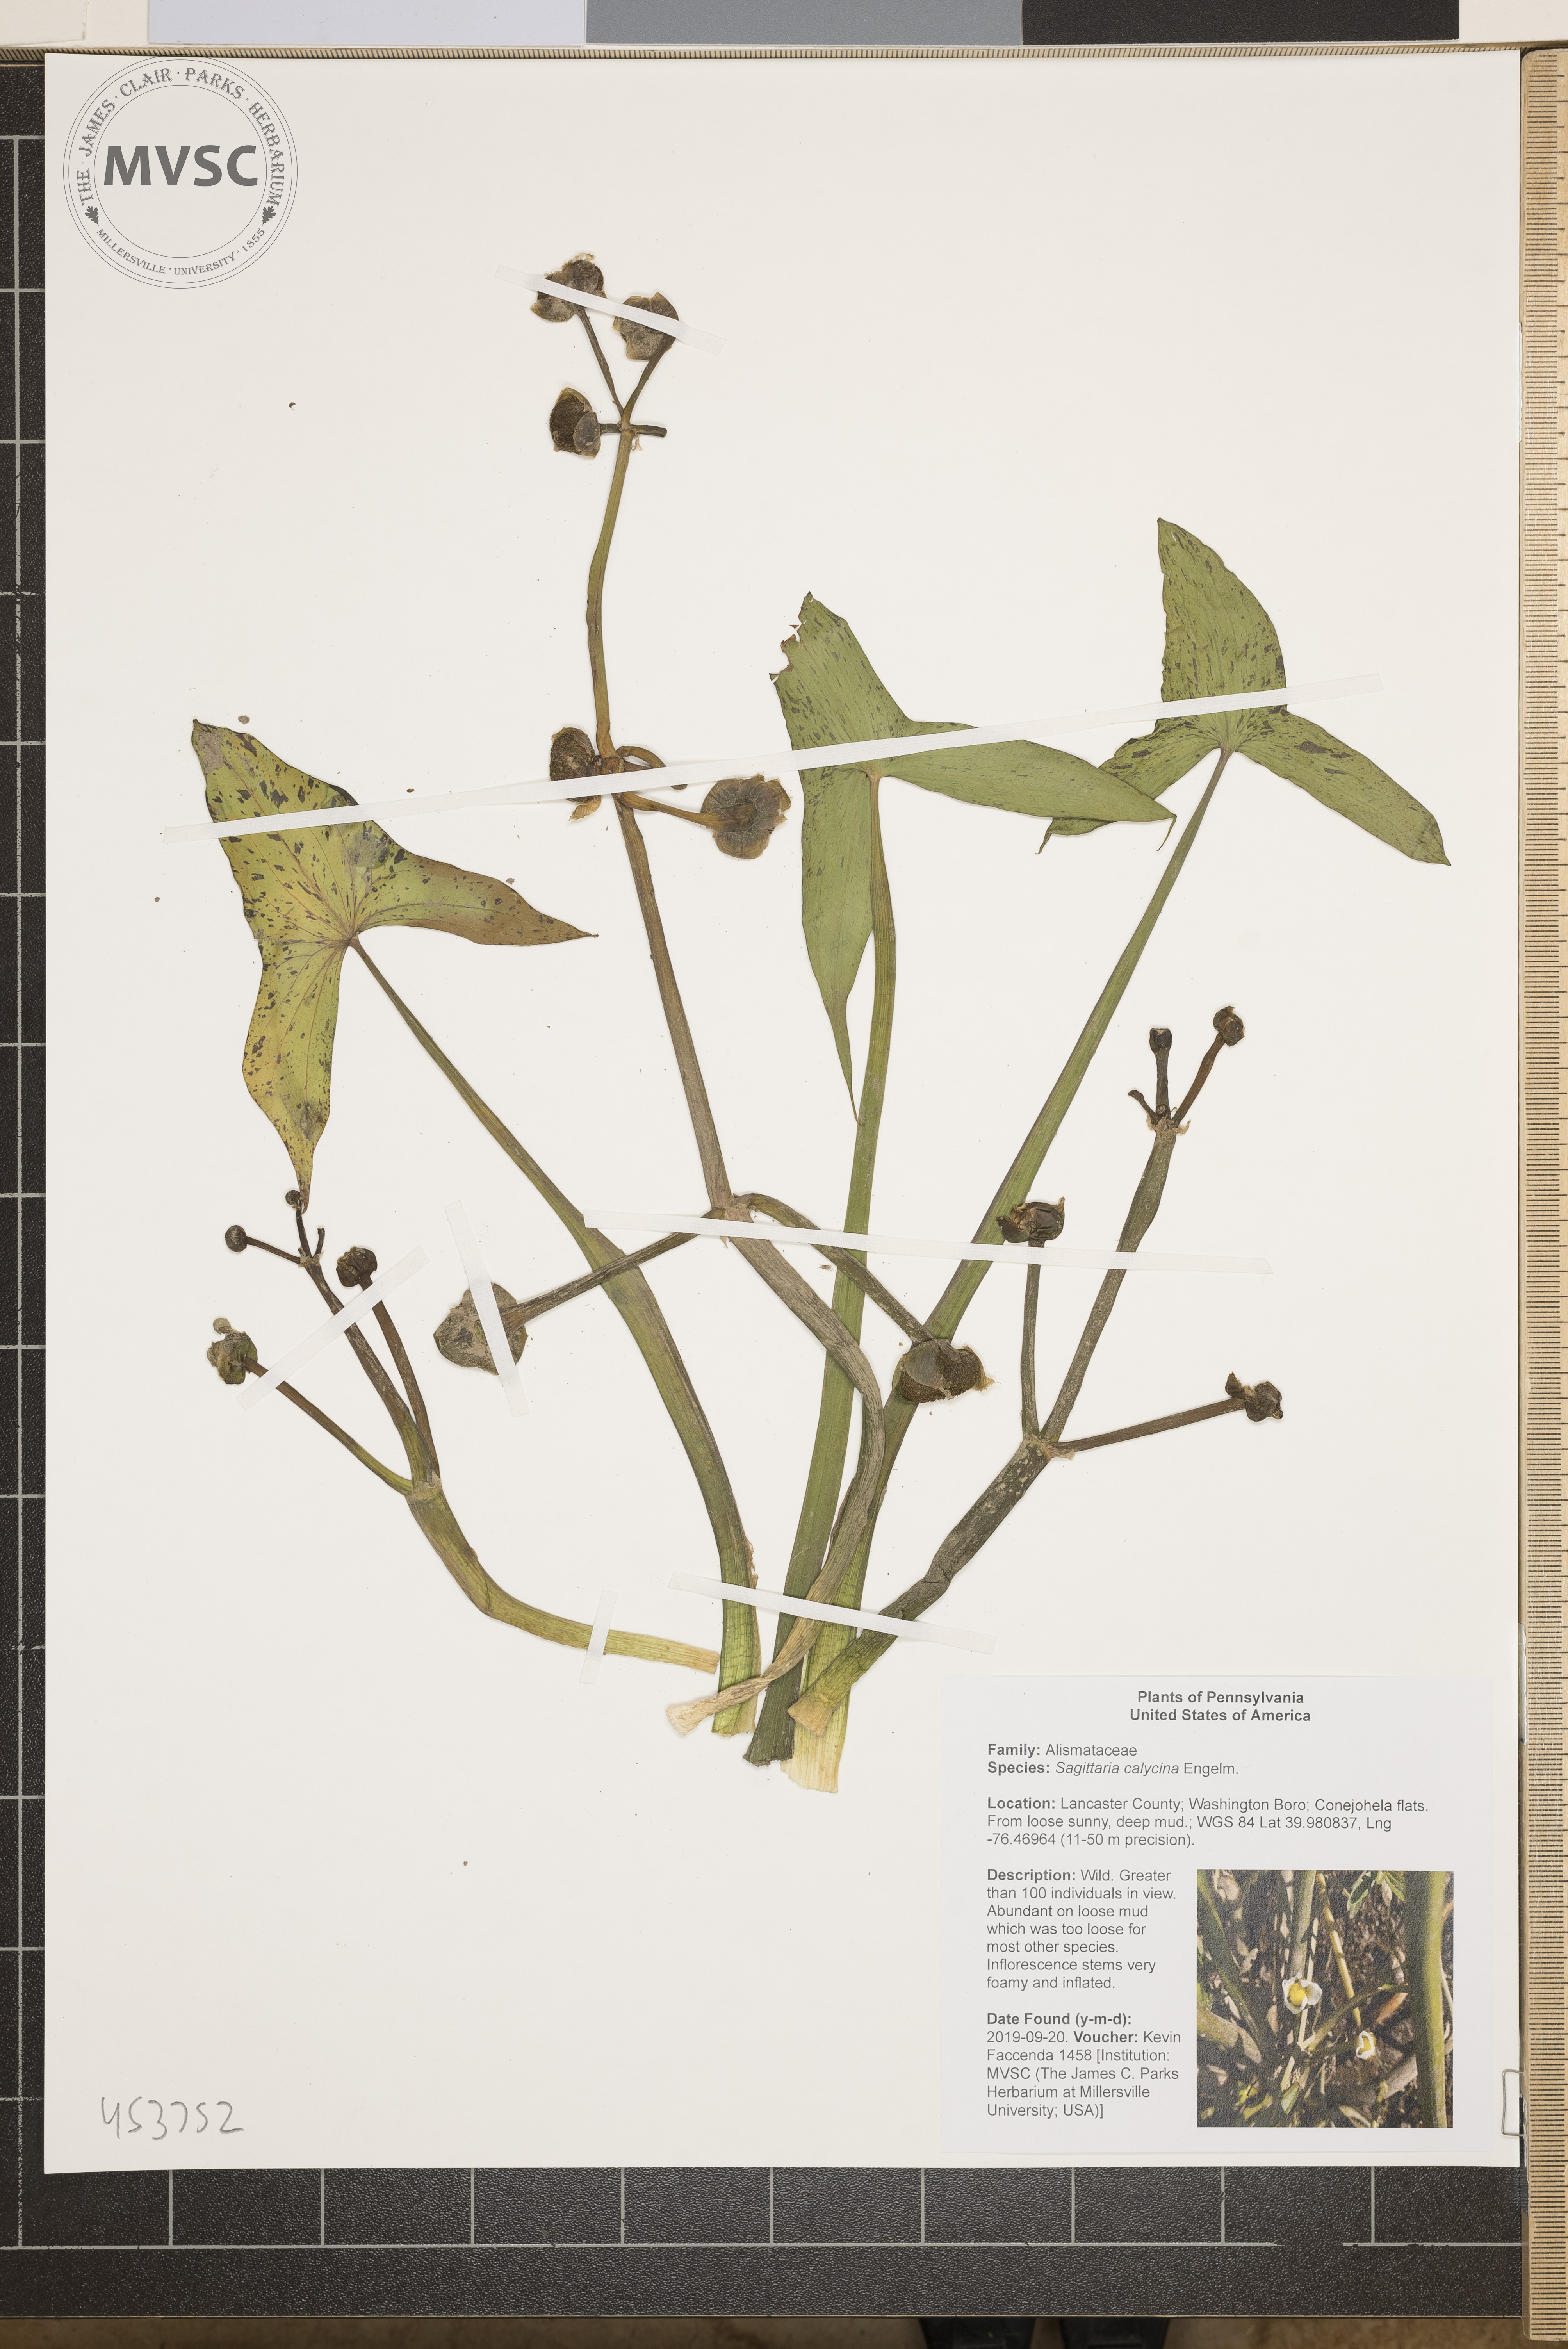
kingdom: Plantae
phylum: Tracheophyta
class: Liliopsida
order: Alismatales
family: Alismataceae
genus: Sagittaria
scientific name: Sagittaria montevidensis
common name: Giant arrowhead
